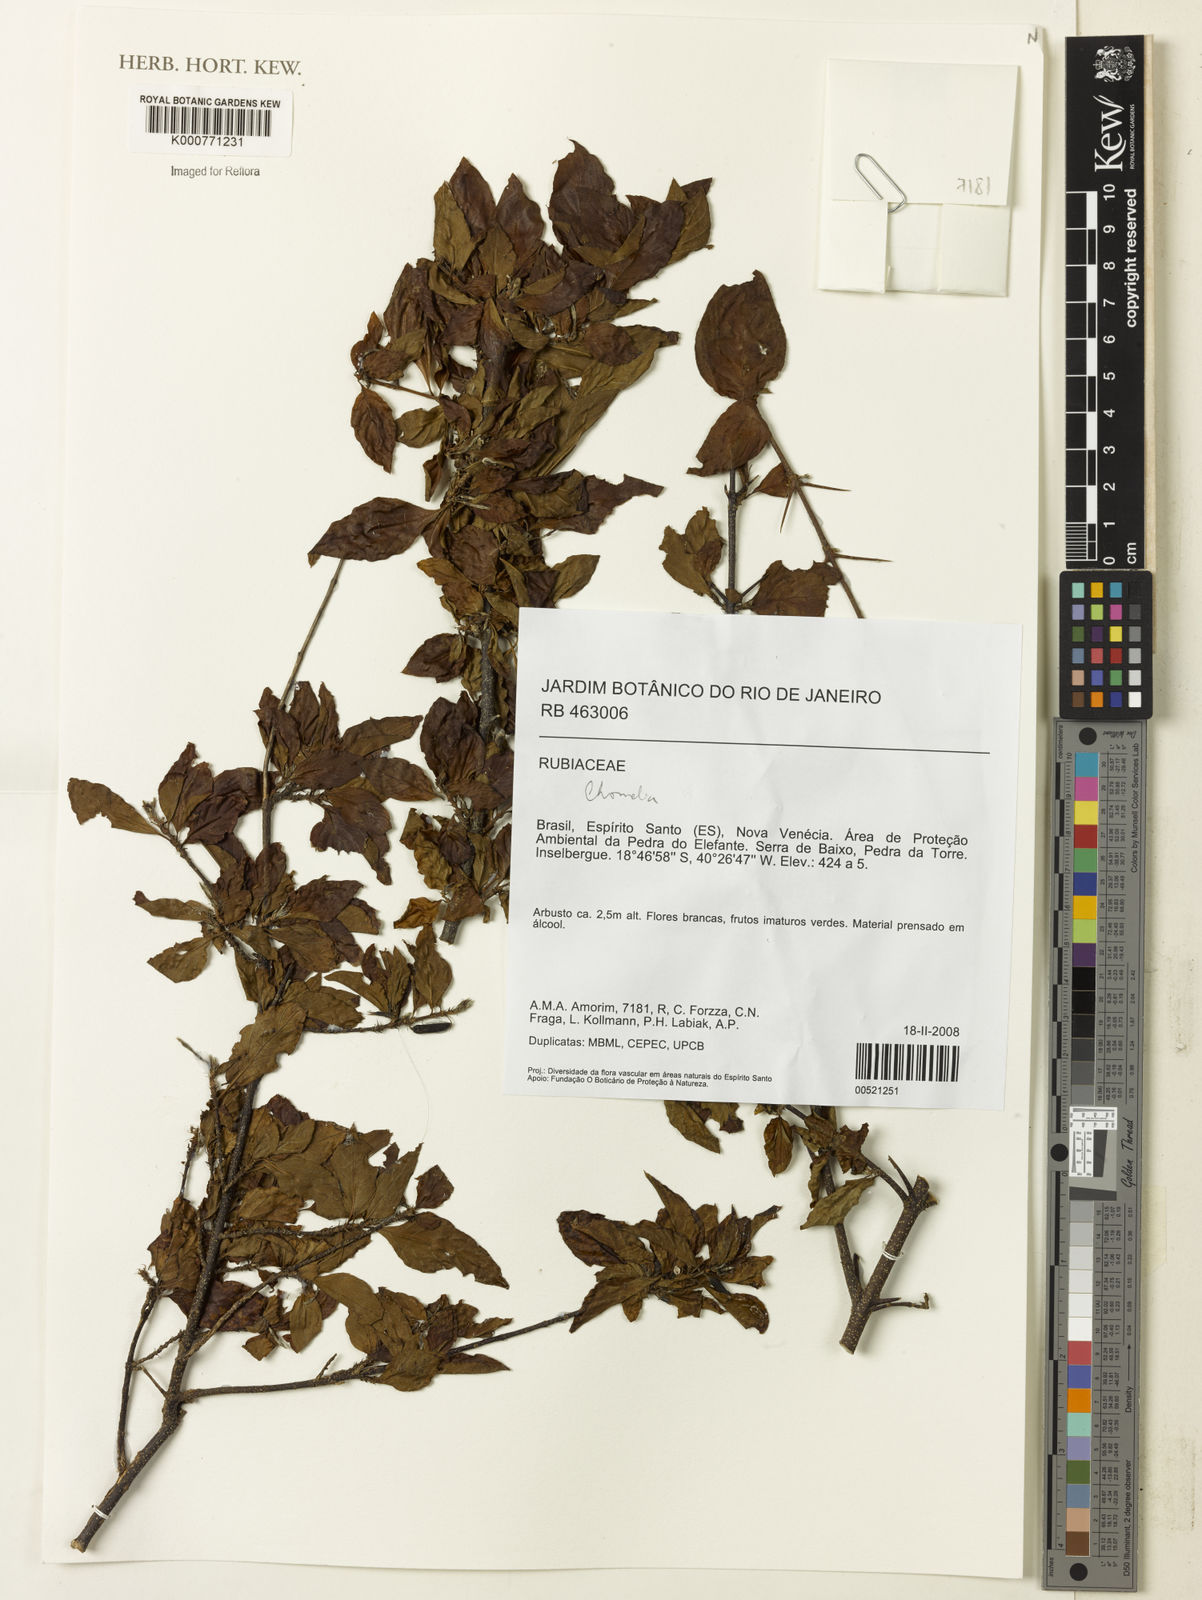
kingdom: Plantae
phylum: Tracheophyta
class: Magnoliopsida
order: Gentianales
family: Rubiaceae
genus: Chomelia
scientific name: Chomelia
